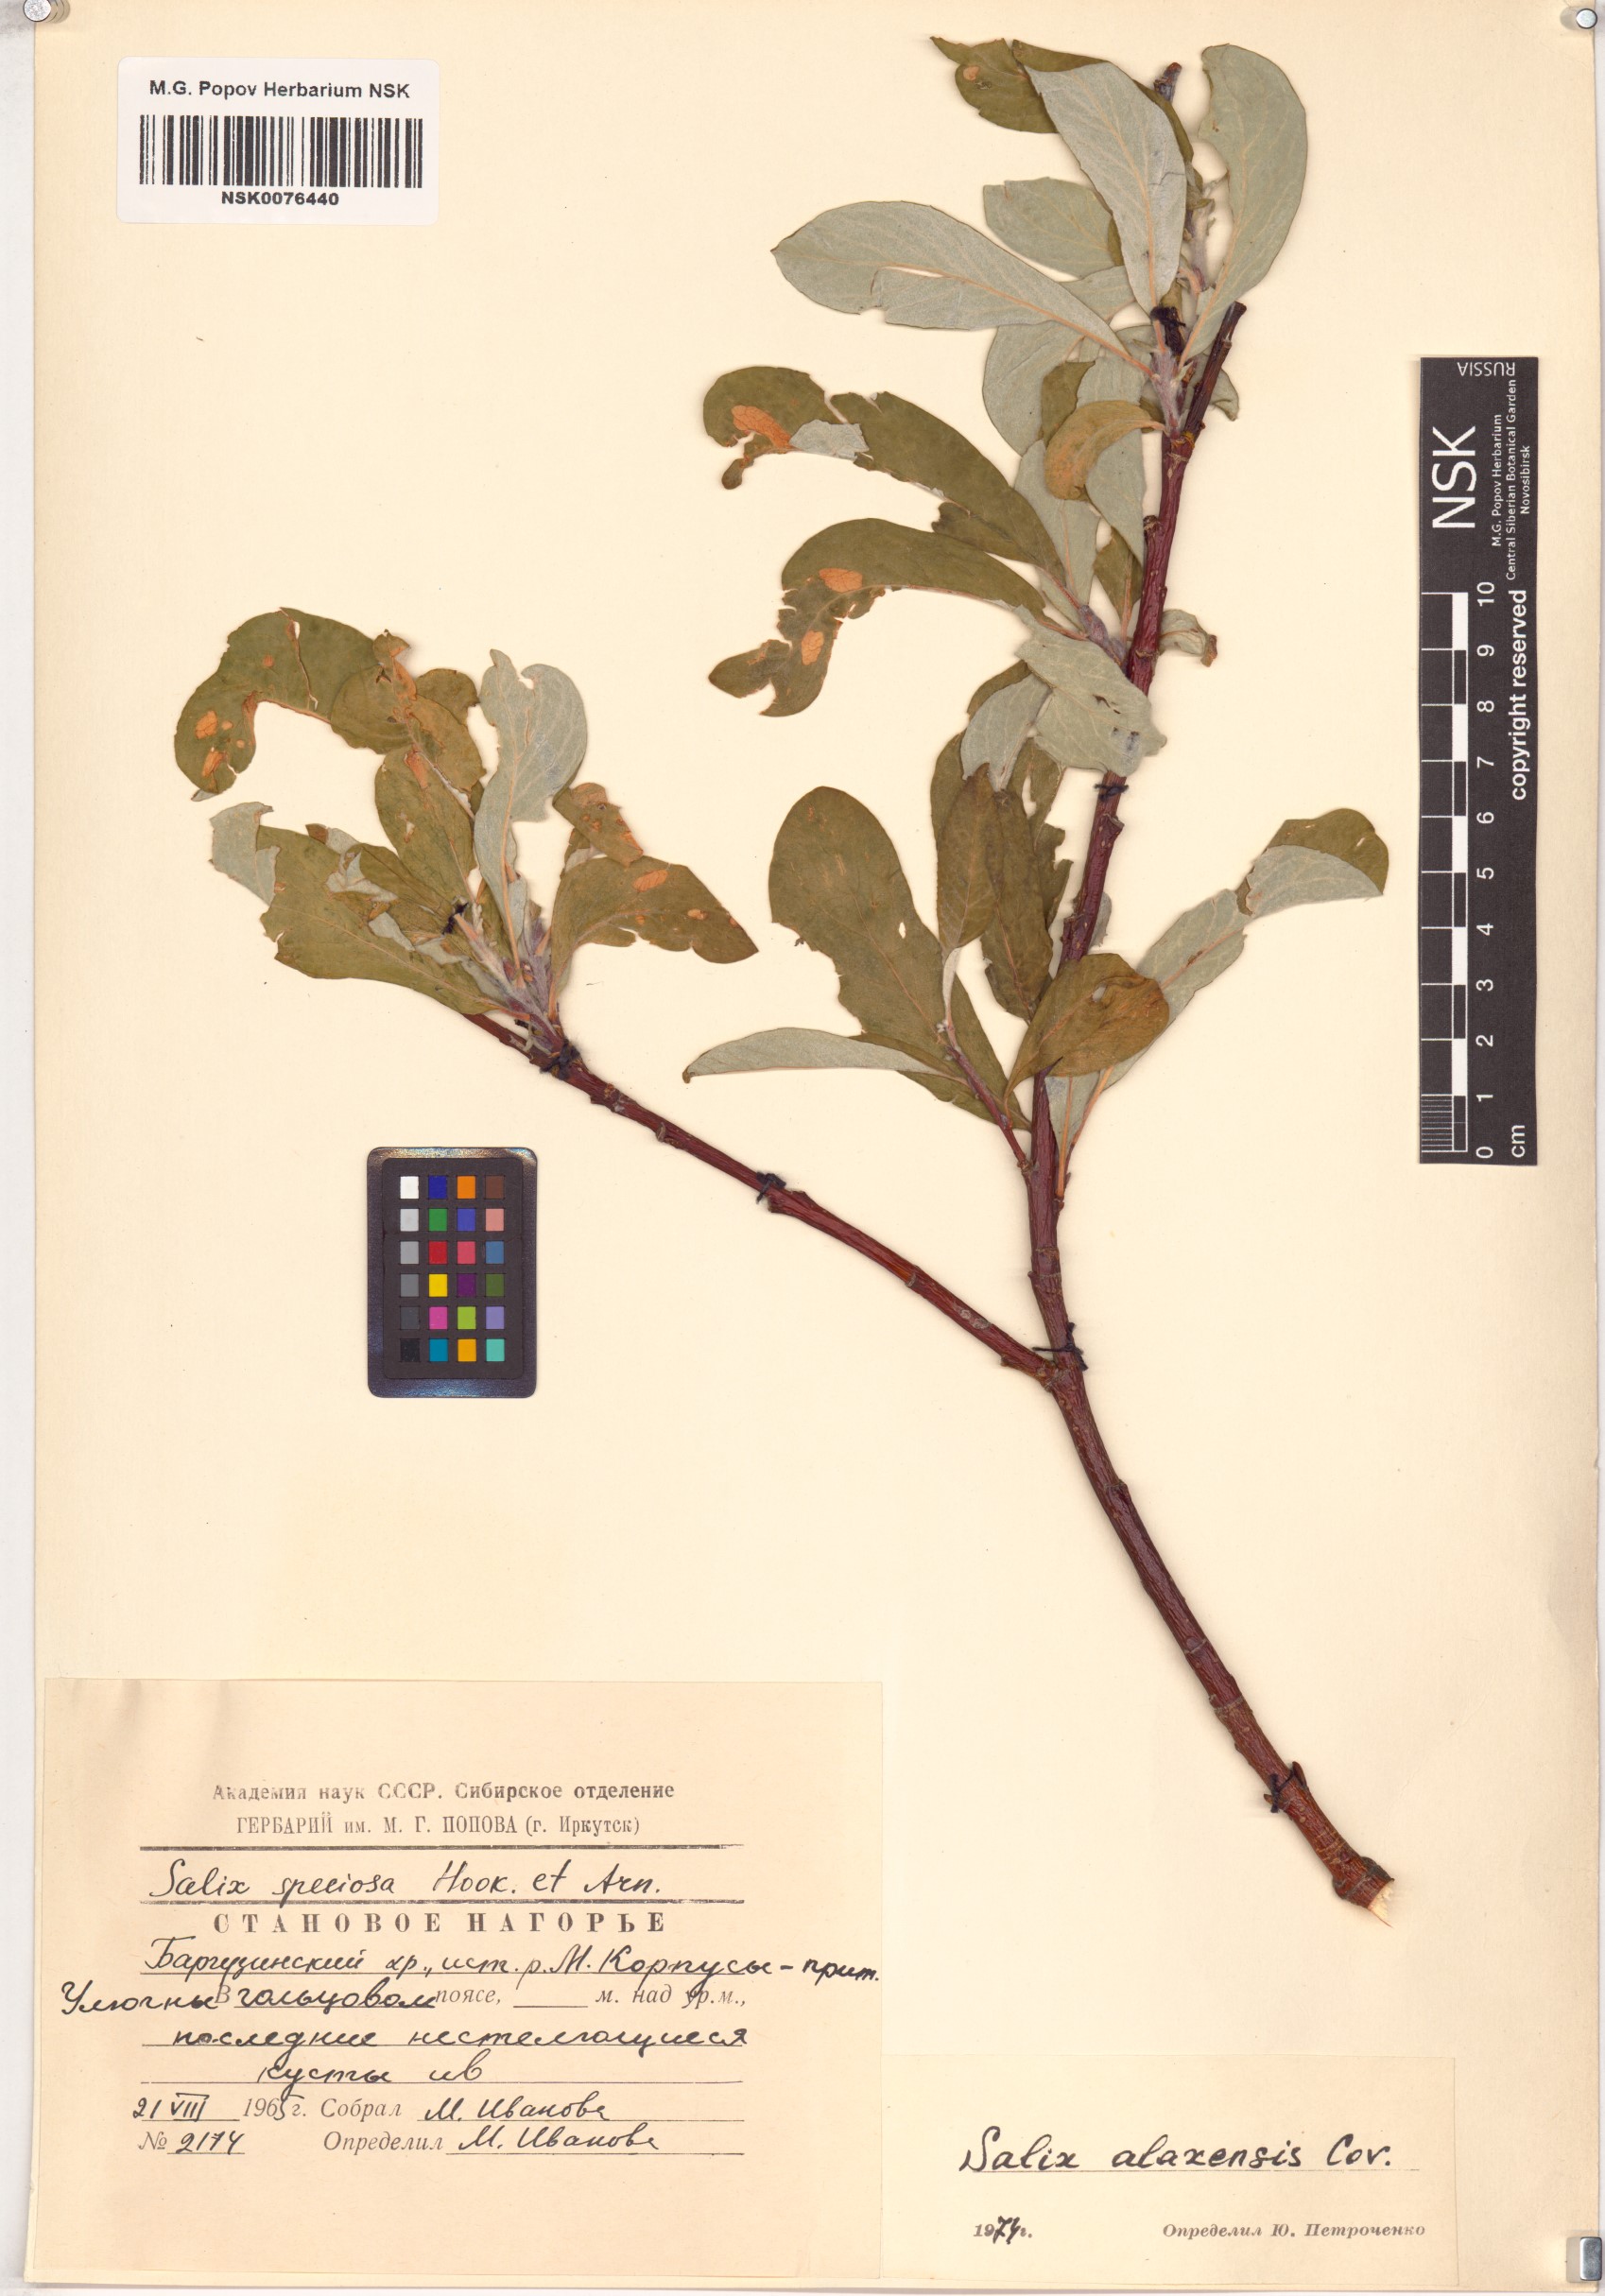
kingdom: Plantae
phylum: Tracheophyta
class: Magnoliopsida
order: Malpighiales
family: Salicaceae
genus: Salix
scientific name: Salix alaxensis
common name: Feltleaf willow
